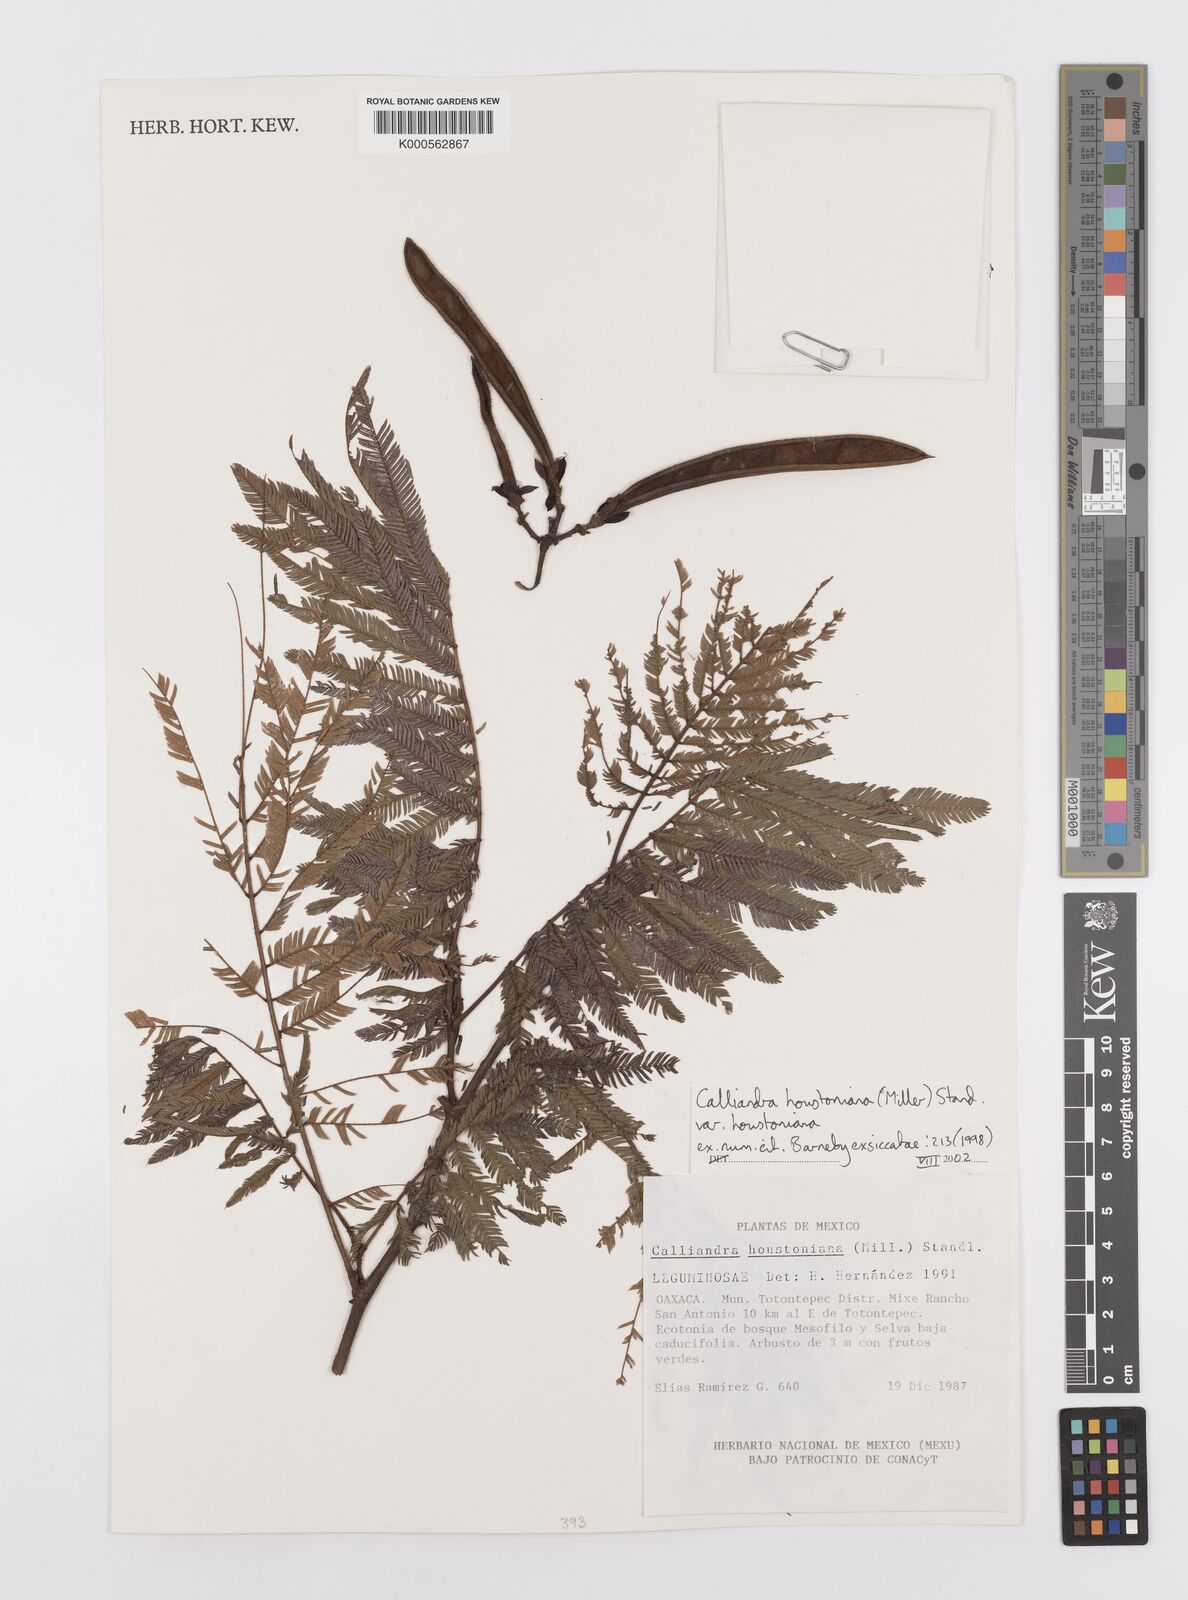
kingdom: Plantae
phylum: Tracheophyta
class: Magnoliopsida
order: Fabales
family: Fabaceae
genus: Calliandra
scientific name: Calliandra houstoniana
